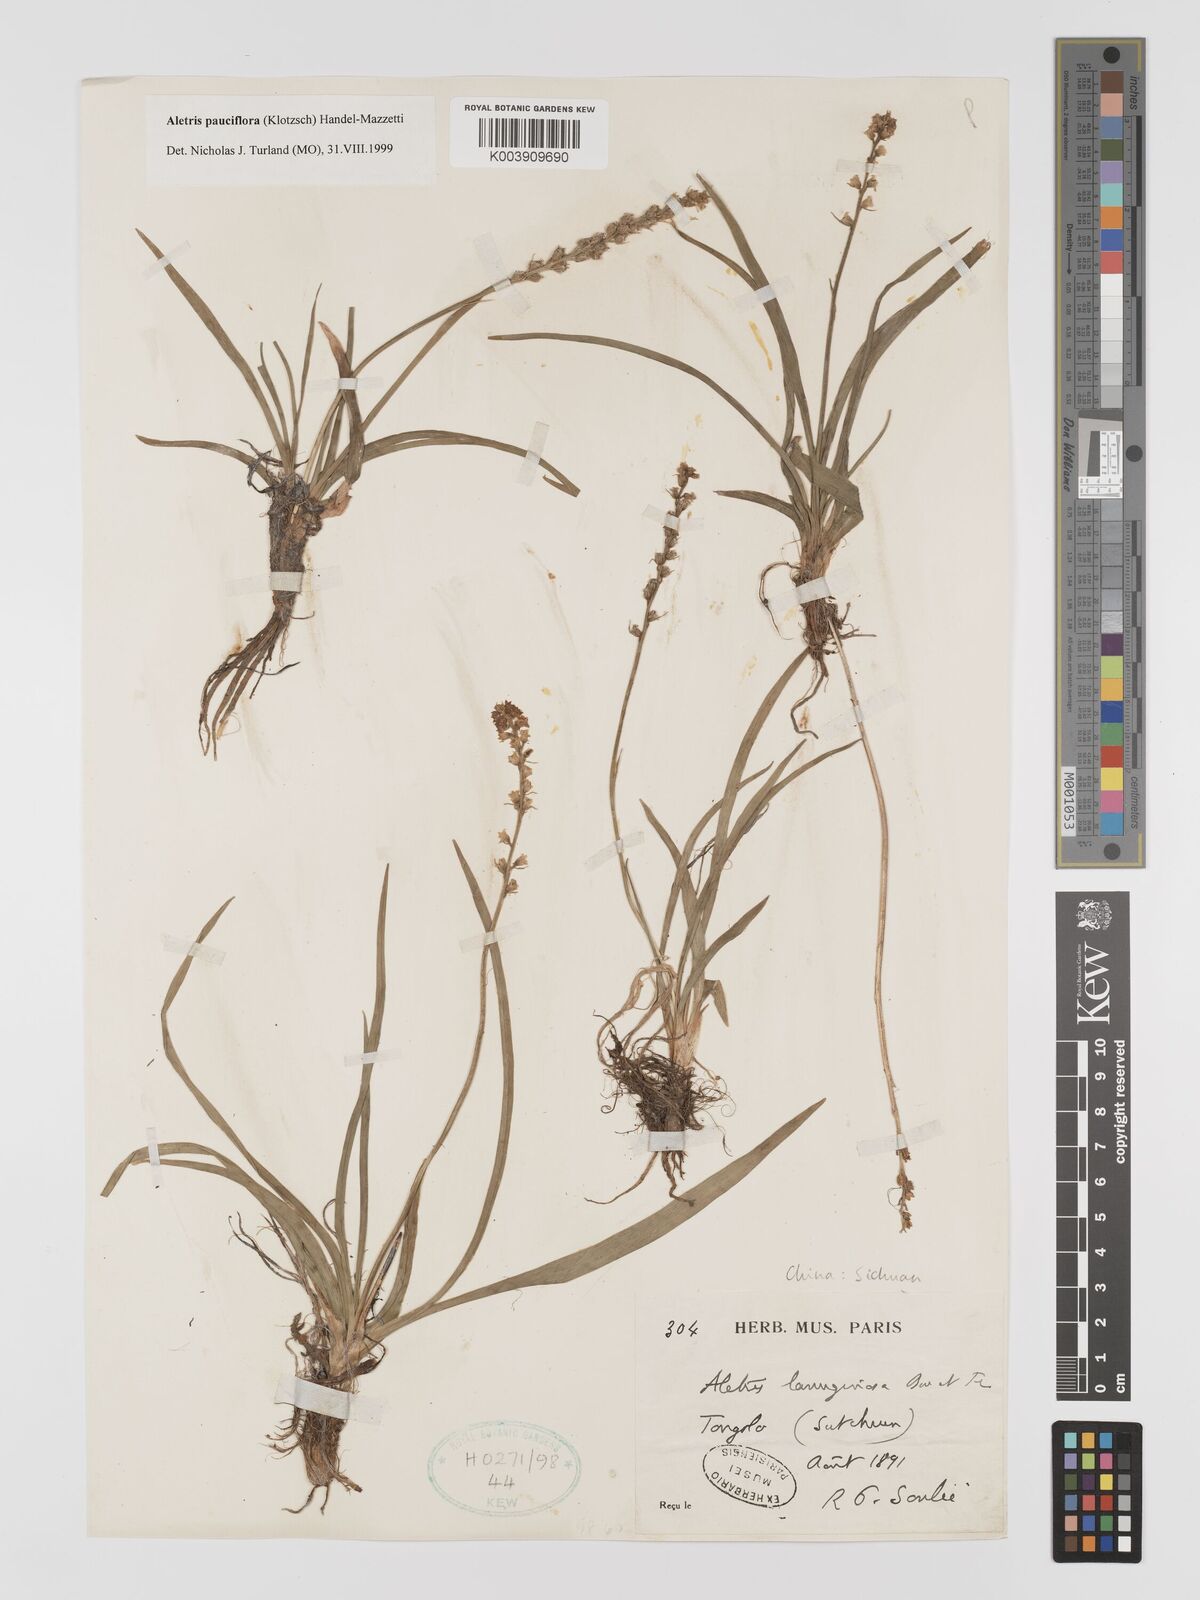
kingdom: Plantae
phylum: Tracheophyta
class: Liliopsida
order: Dioscoreales
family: Nartheciaceae
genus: Aletris
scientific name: Aletris pauciflora
